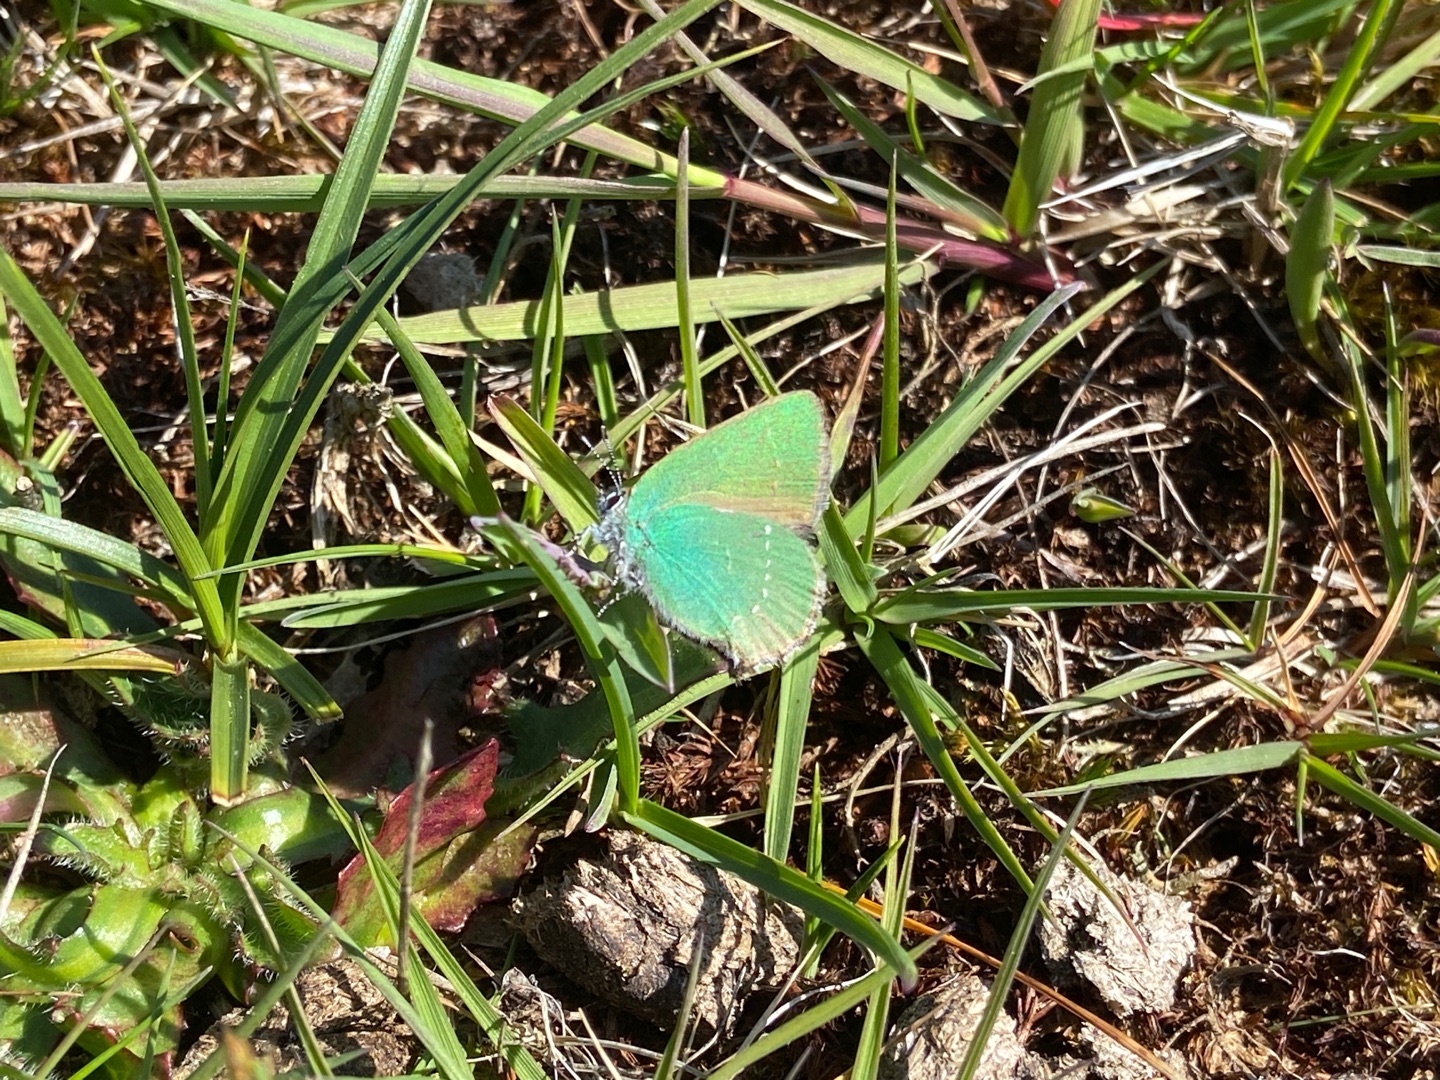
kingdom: Animalia
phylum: Arthropoda
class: Insecta
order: Lepidoptera
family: Lycaenidae
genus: Callophrys
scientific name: Callophrys rubi
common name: Grøn busksommerfugl
